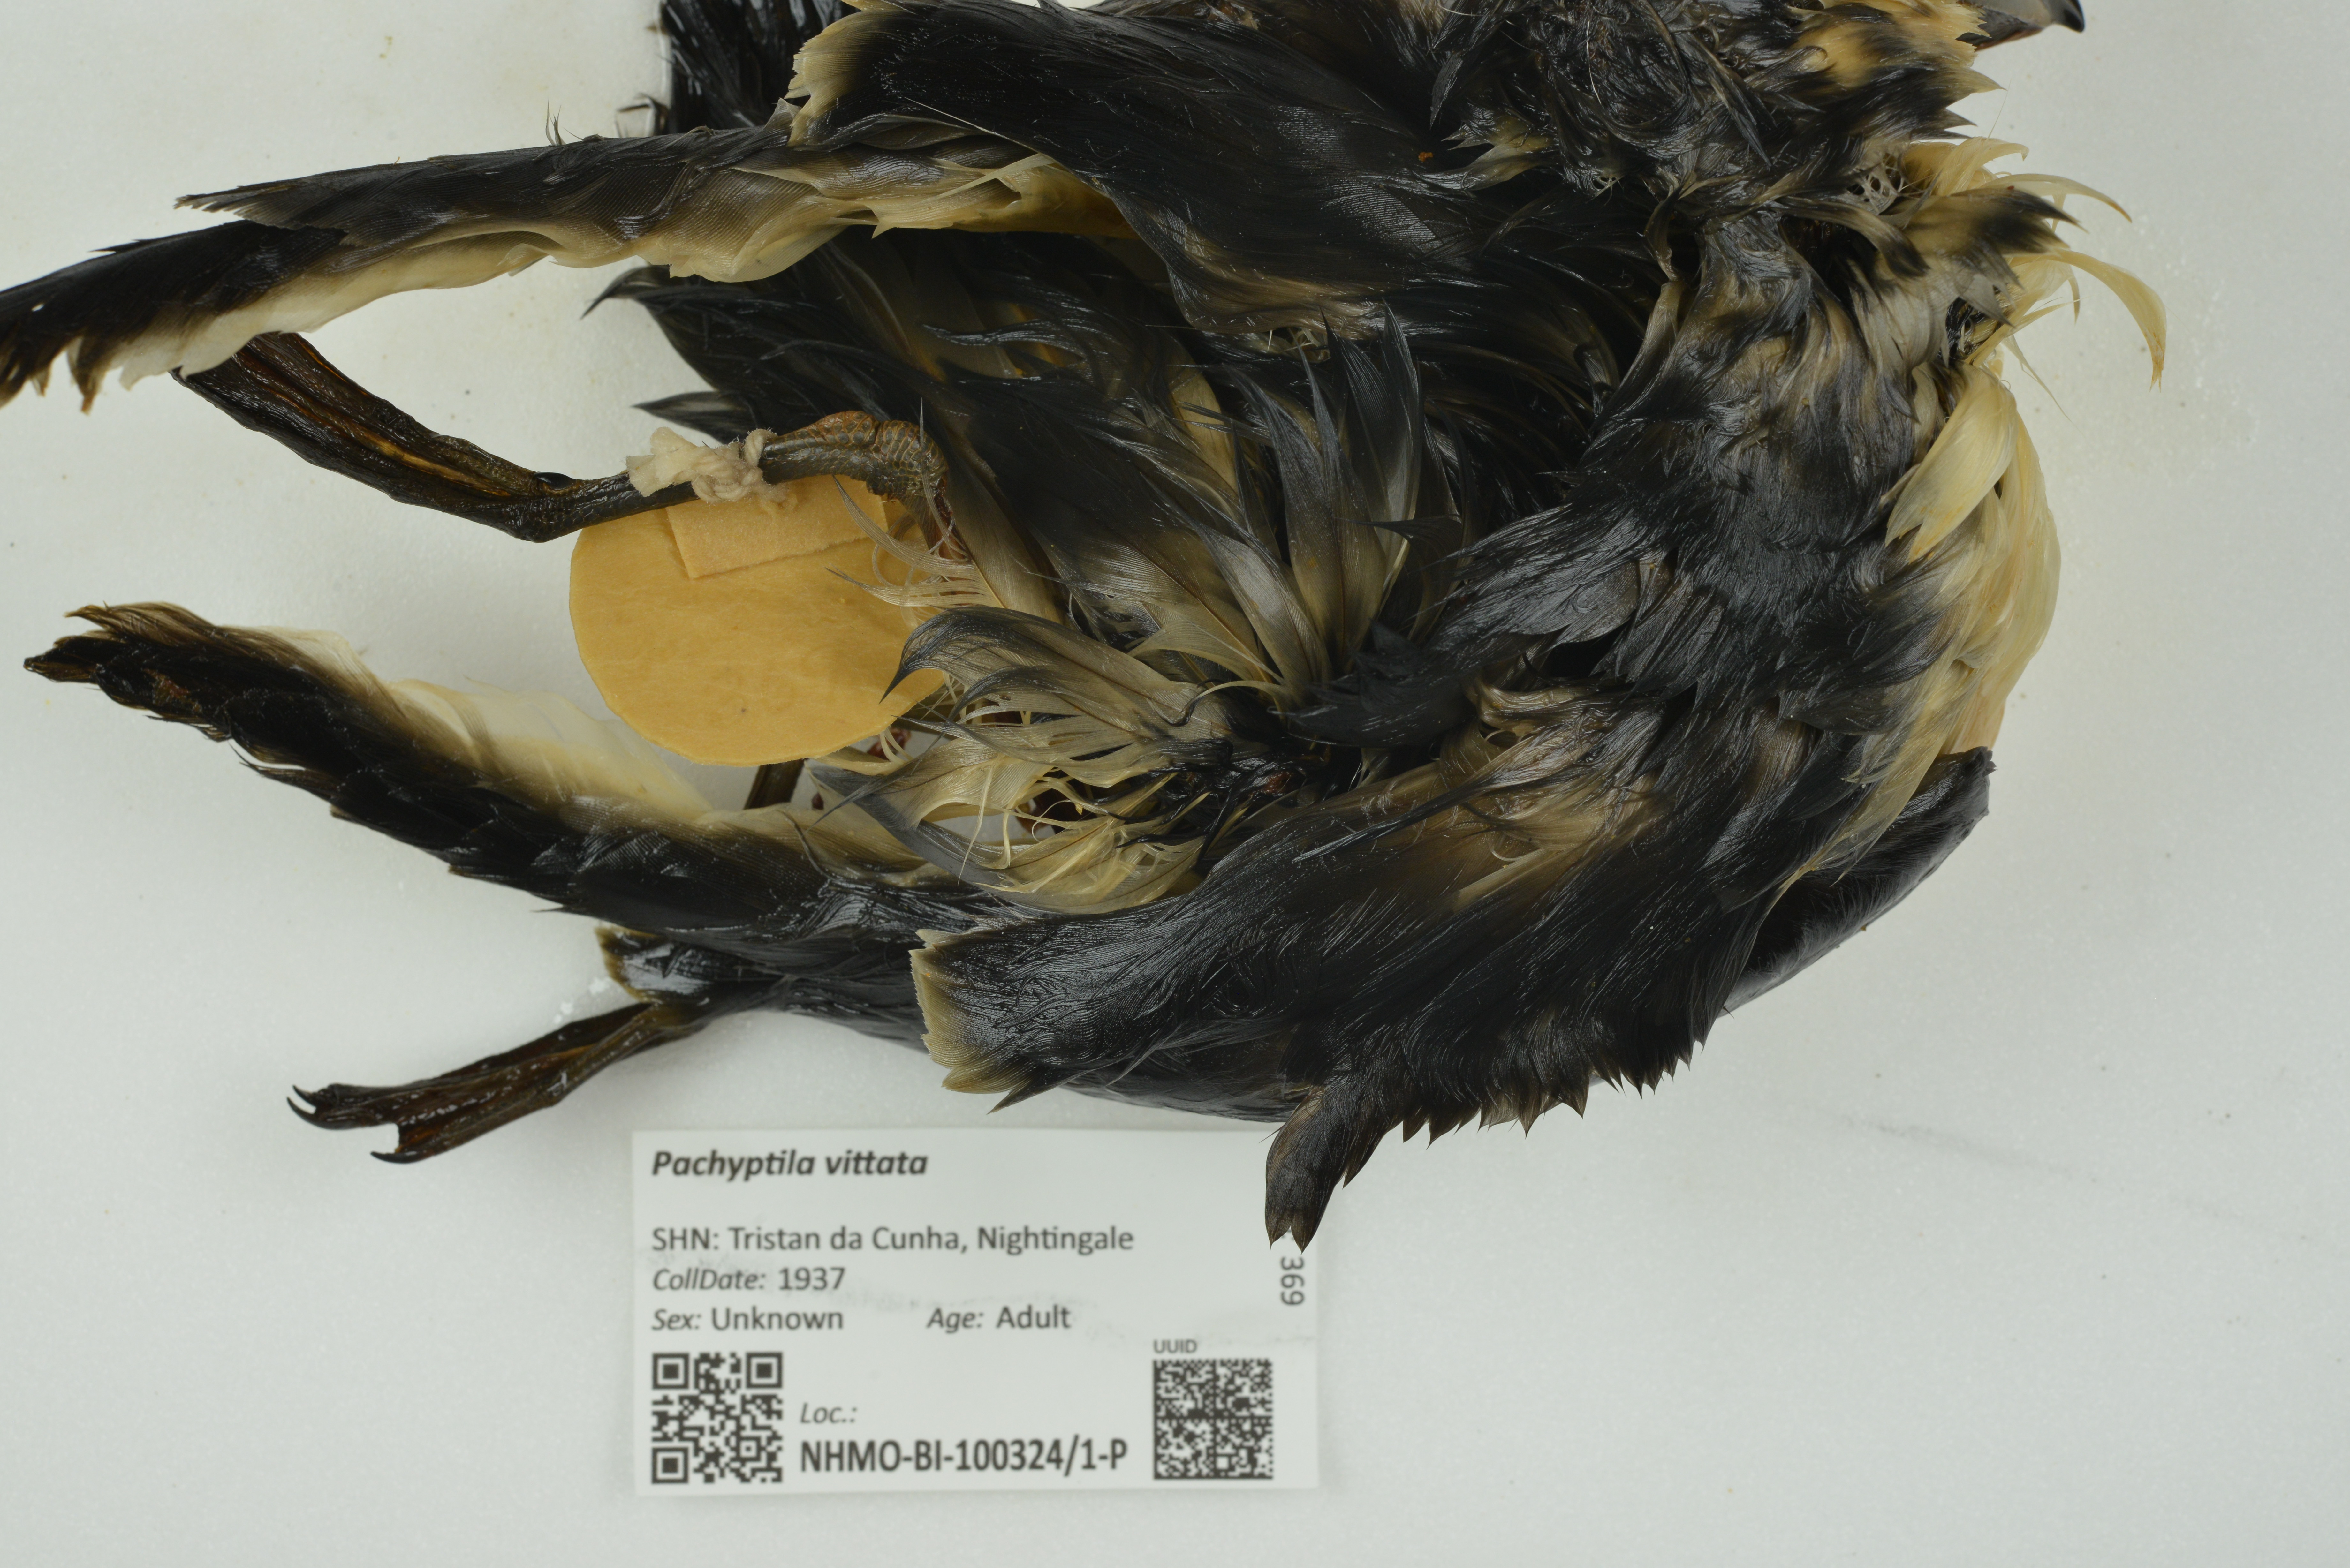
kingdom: Animalia
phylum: Chordata
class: Aves
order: Procellariiformes
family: Procellariidae
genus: Pachyptila
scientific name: Pachyptila vittata
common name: Broad-billed prion
